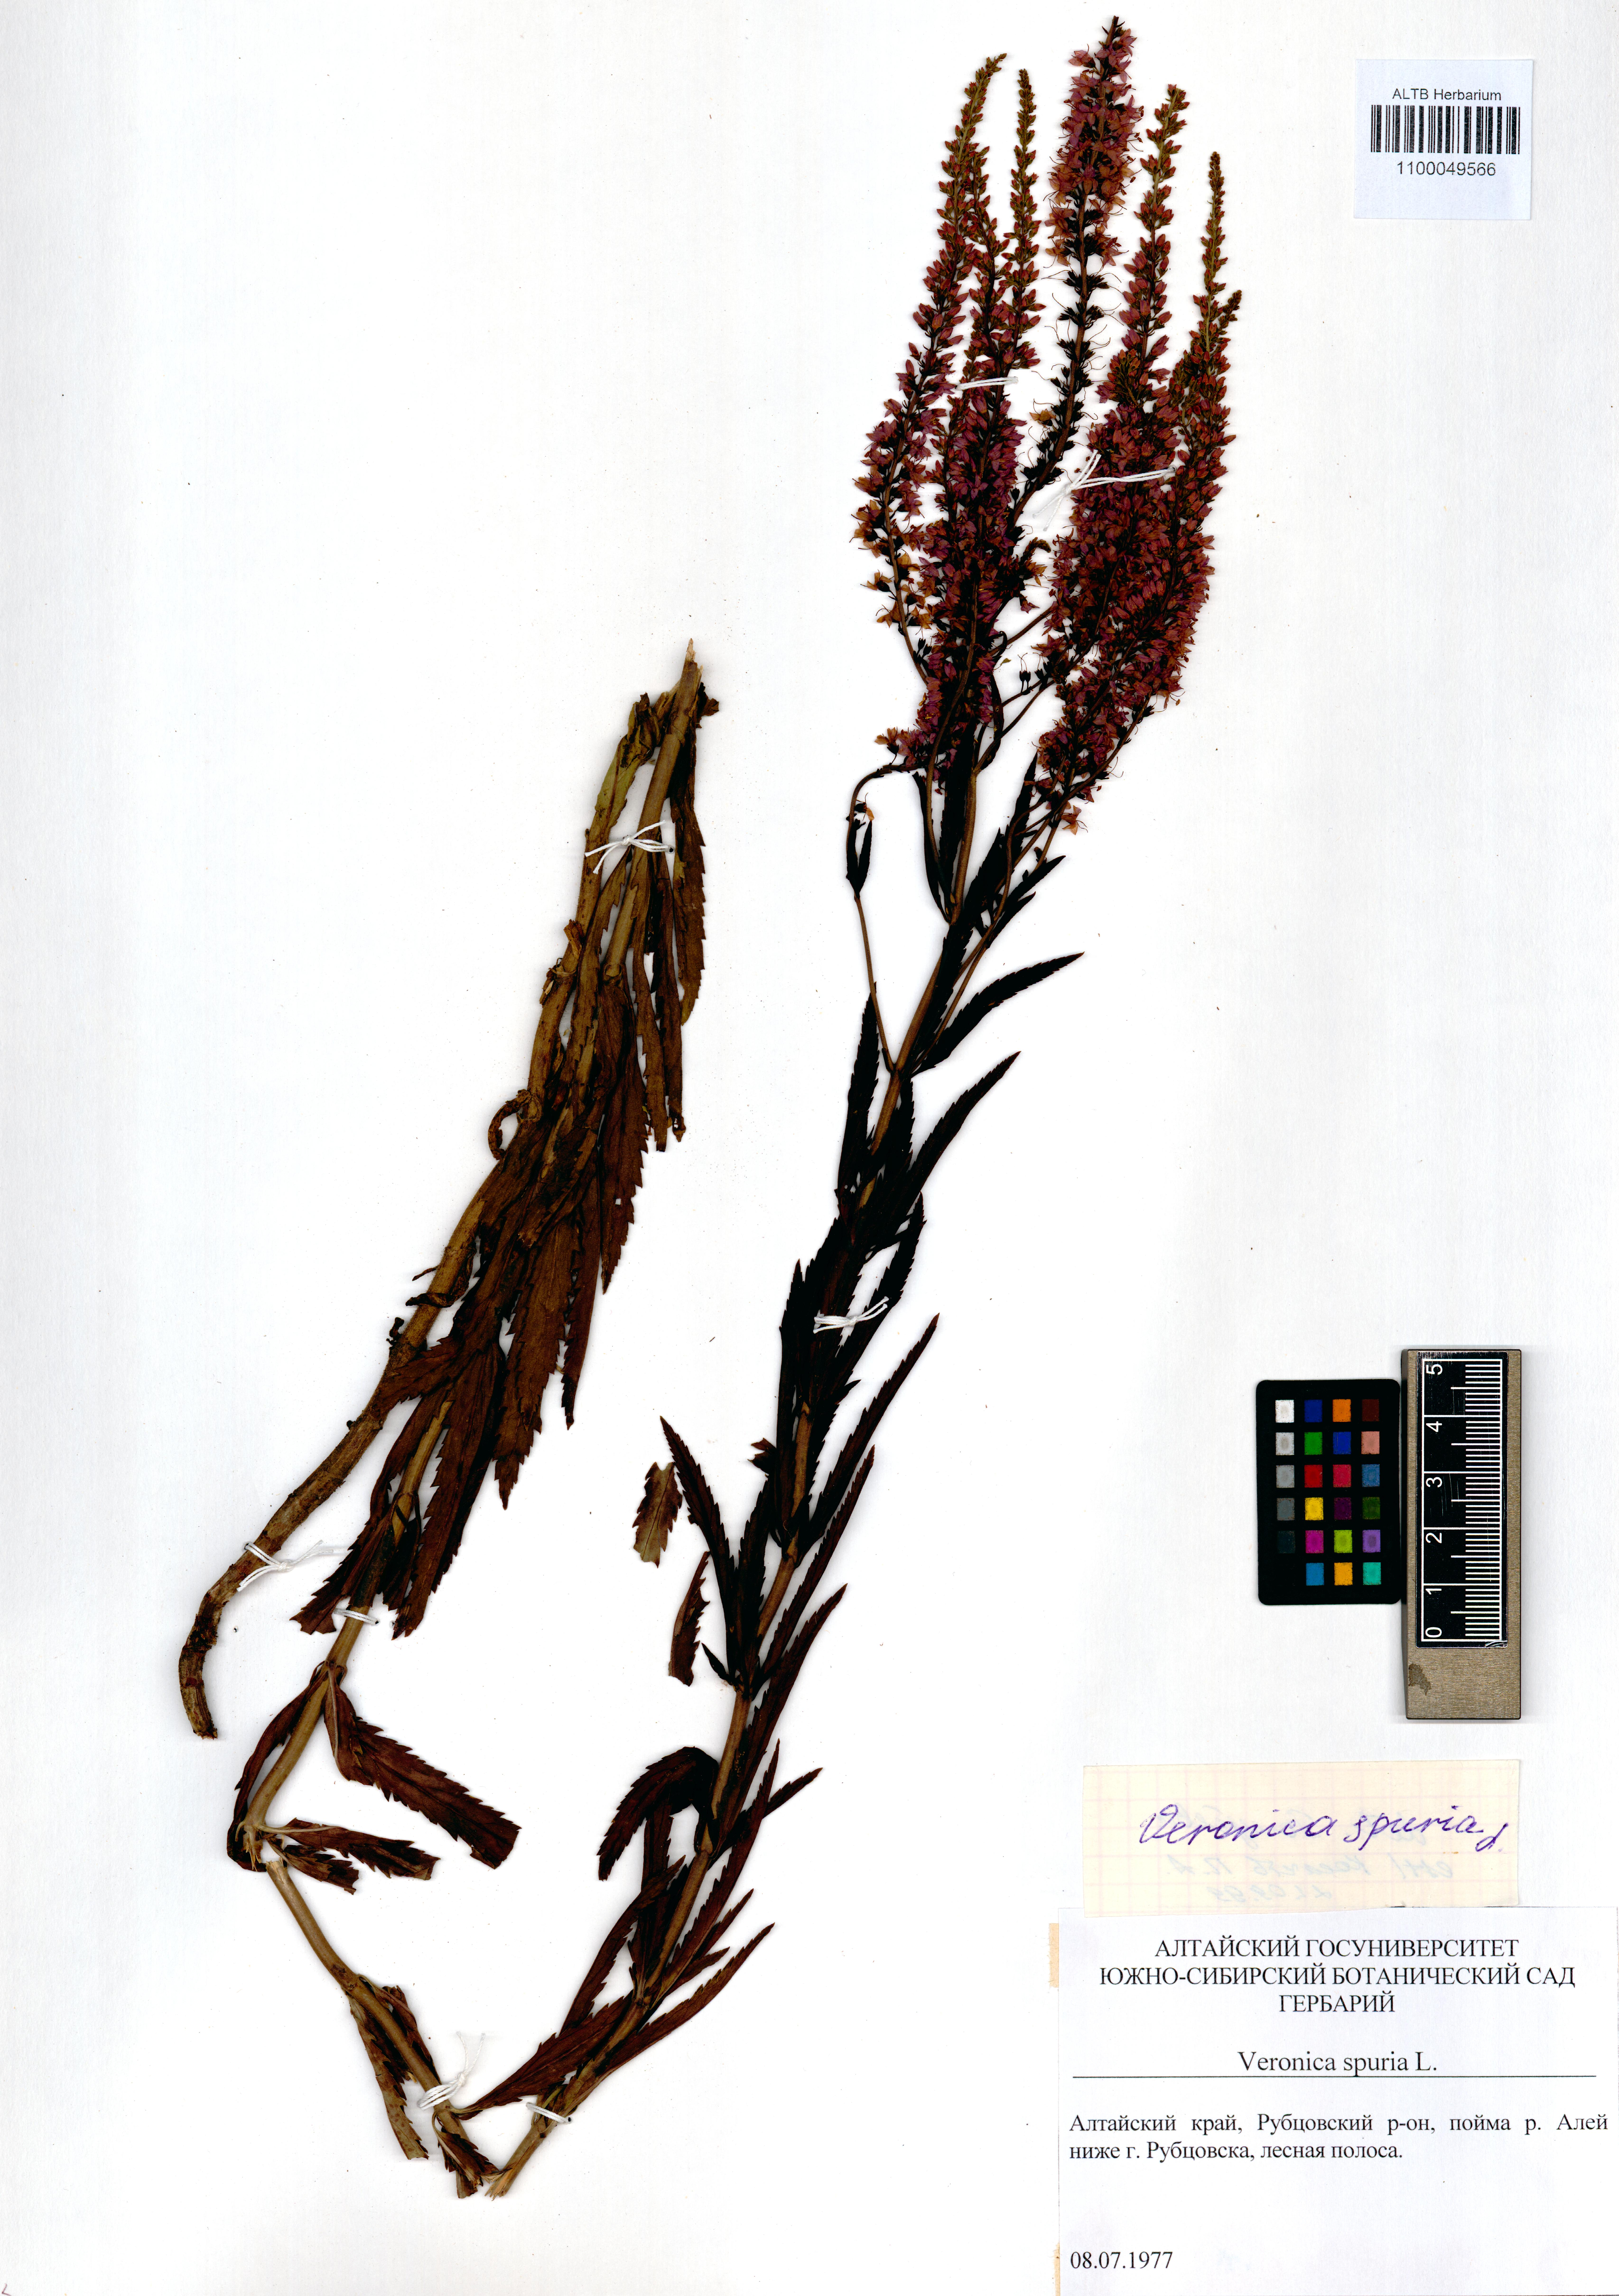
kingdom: Plantae
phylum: Tracheophyta
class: Magnoliopsida
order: Lamiales
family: Plantaginaceae
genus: Veronica
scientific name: Veronica spuria
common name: Bastard speedwell
